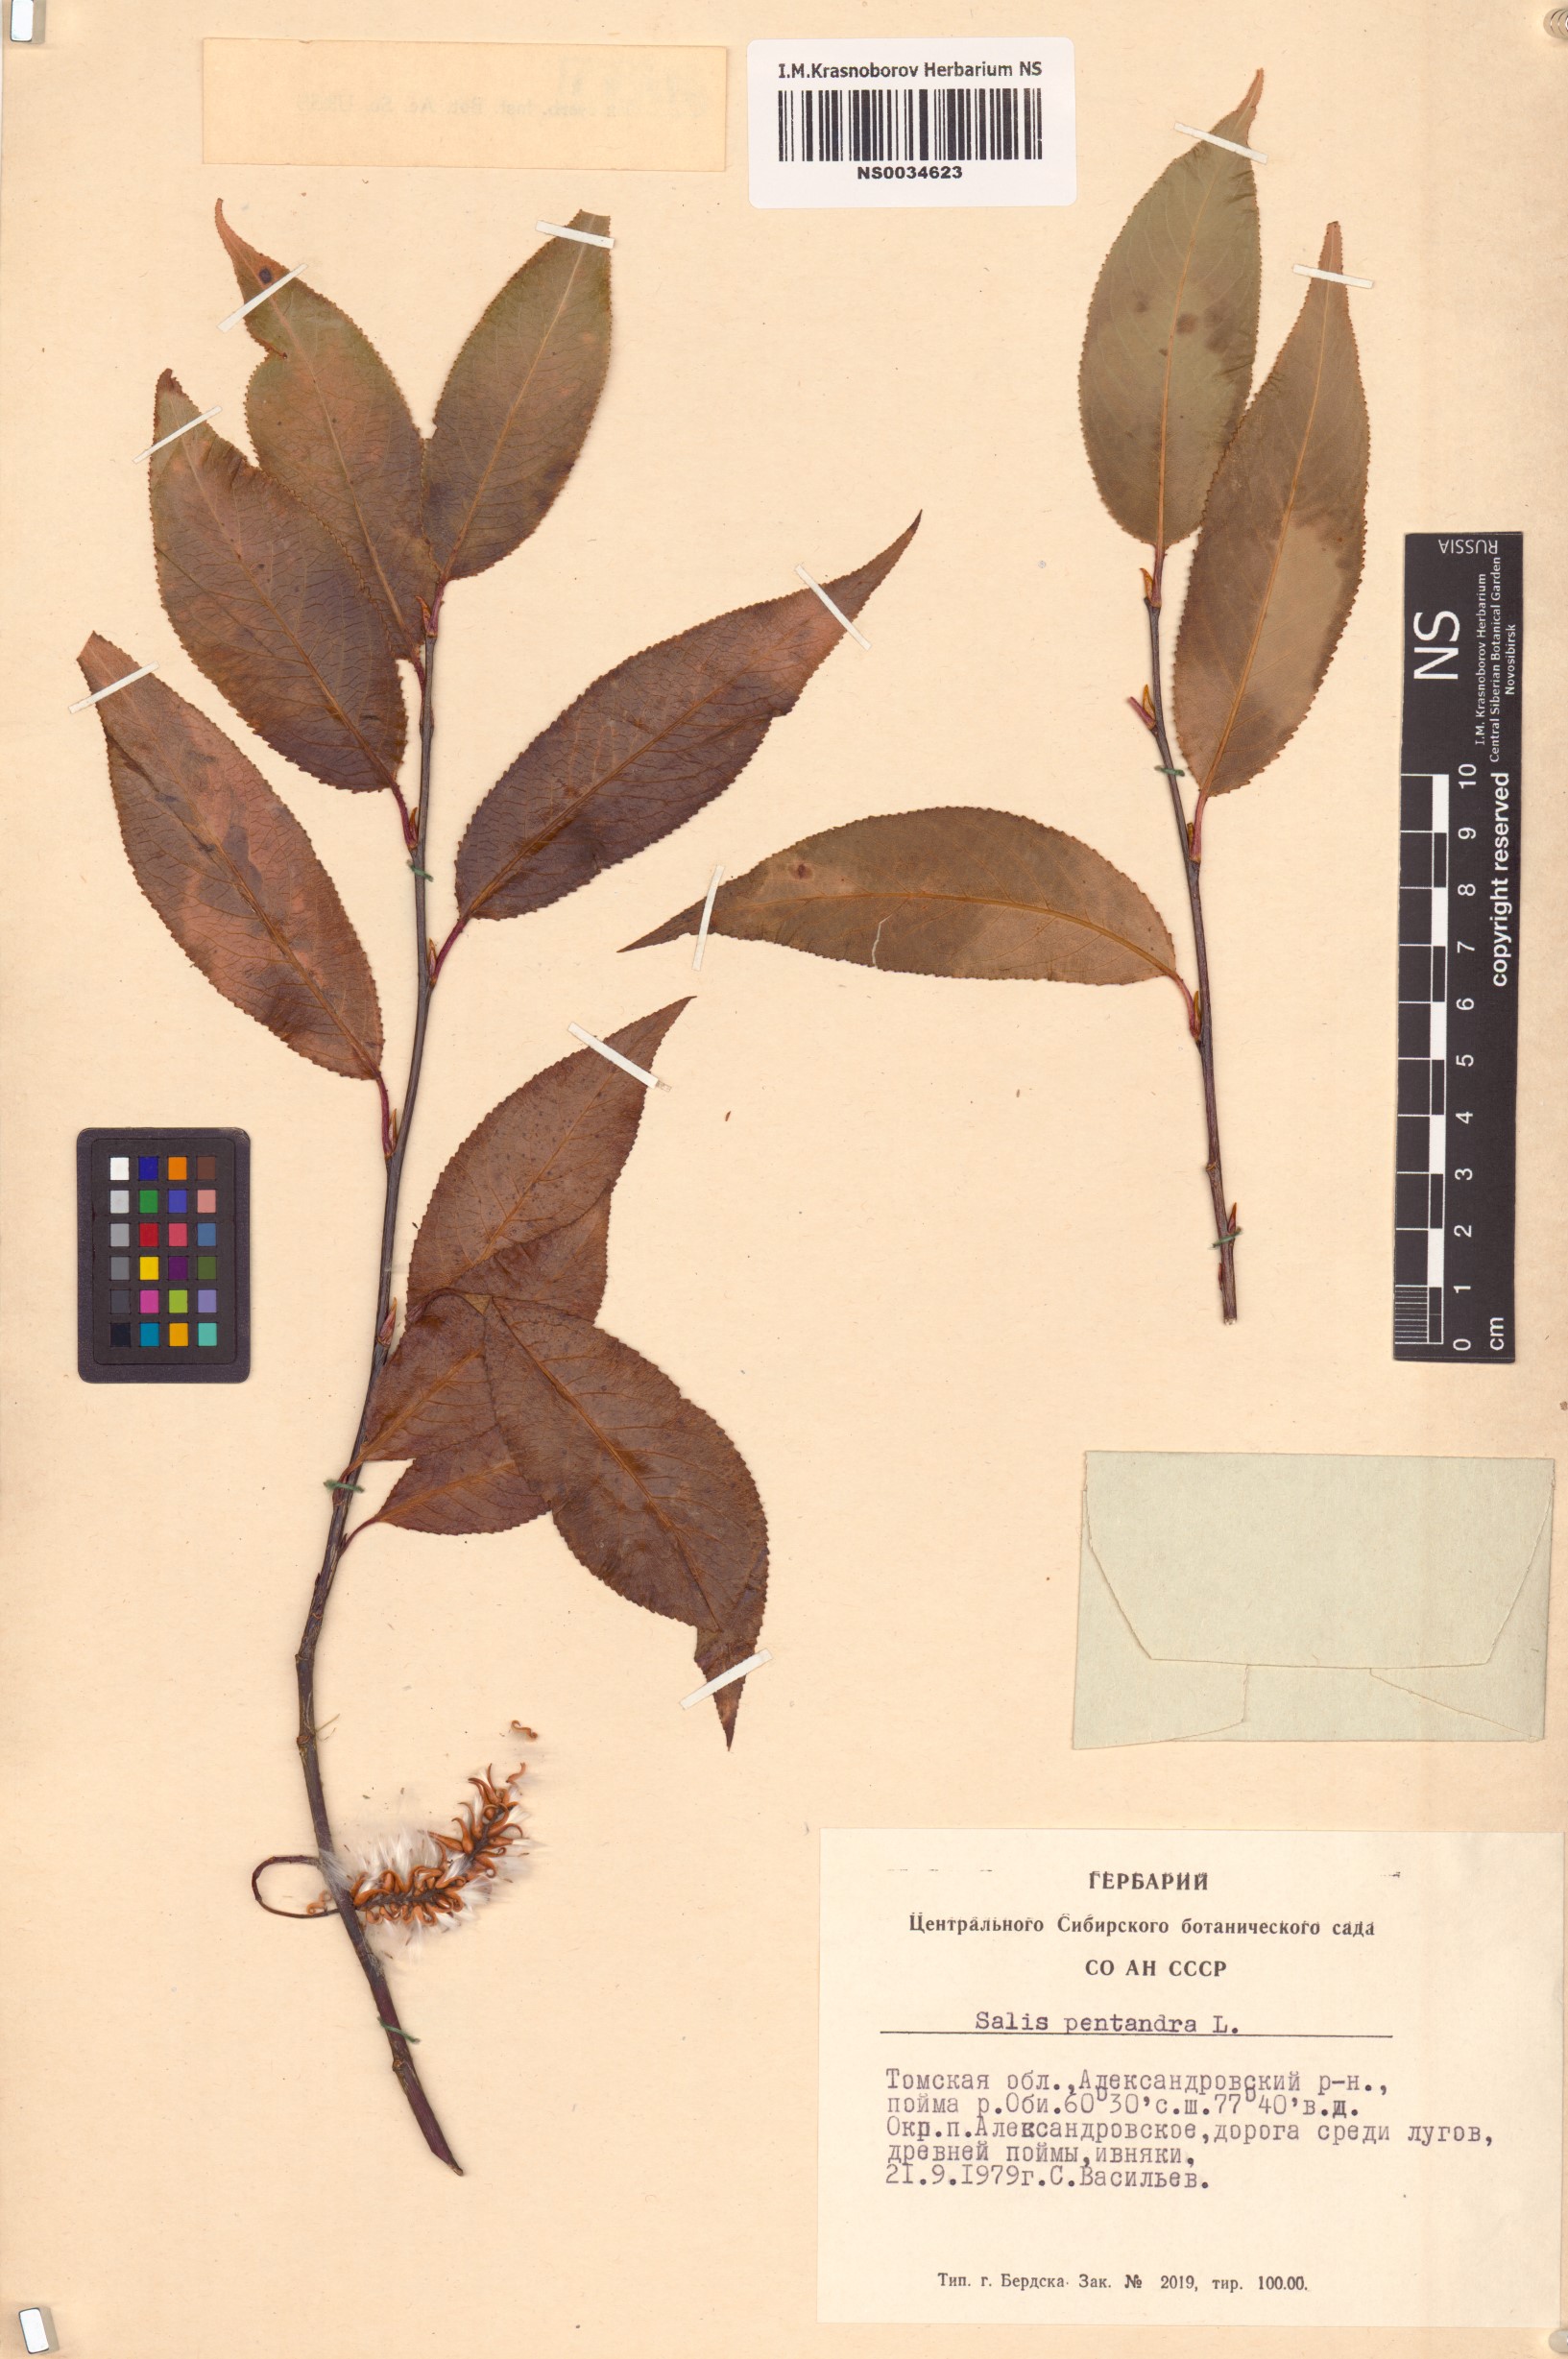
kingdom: Plantae
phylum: Tracheophyta
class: Magnoliopsida
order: Malpighiales
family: Salicaceae
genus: Salix
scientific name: Salix pentandra
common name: Bay willow
